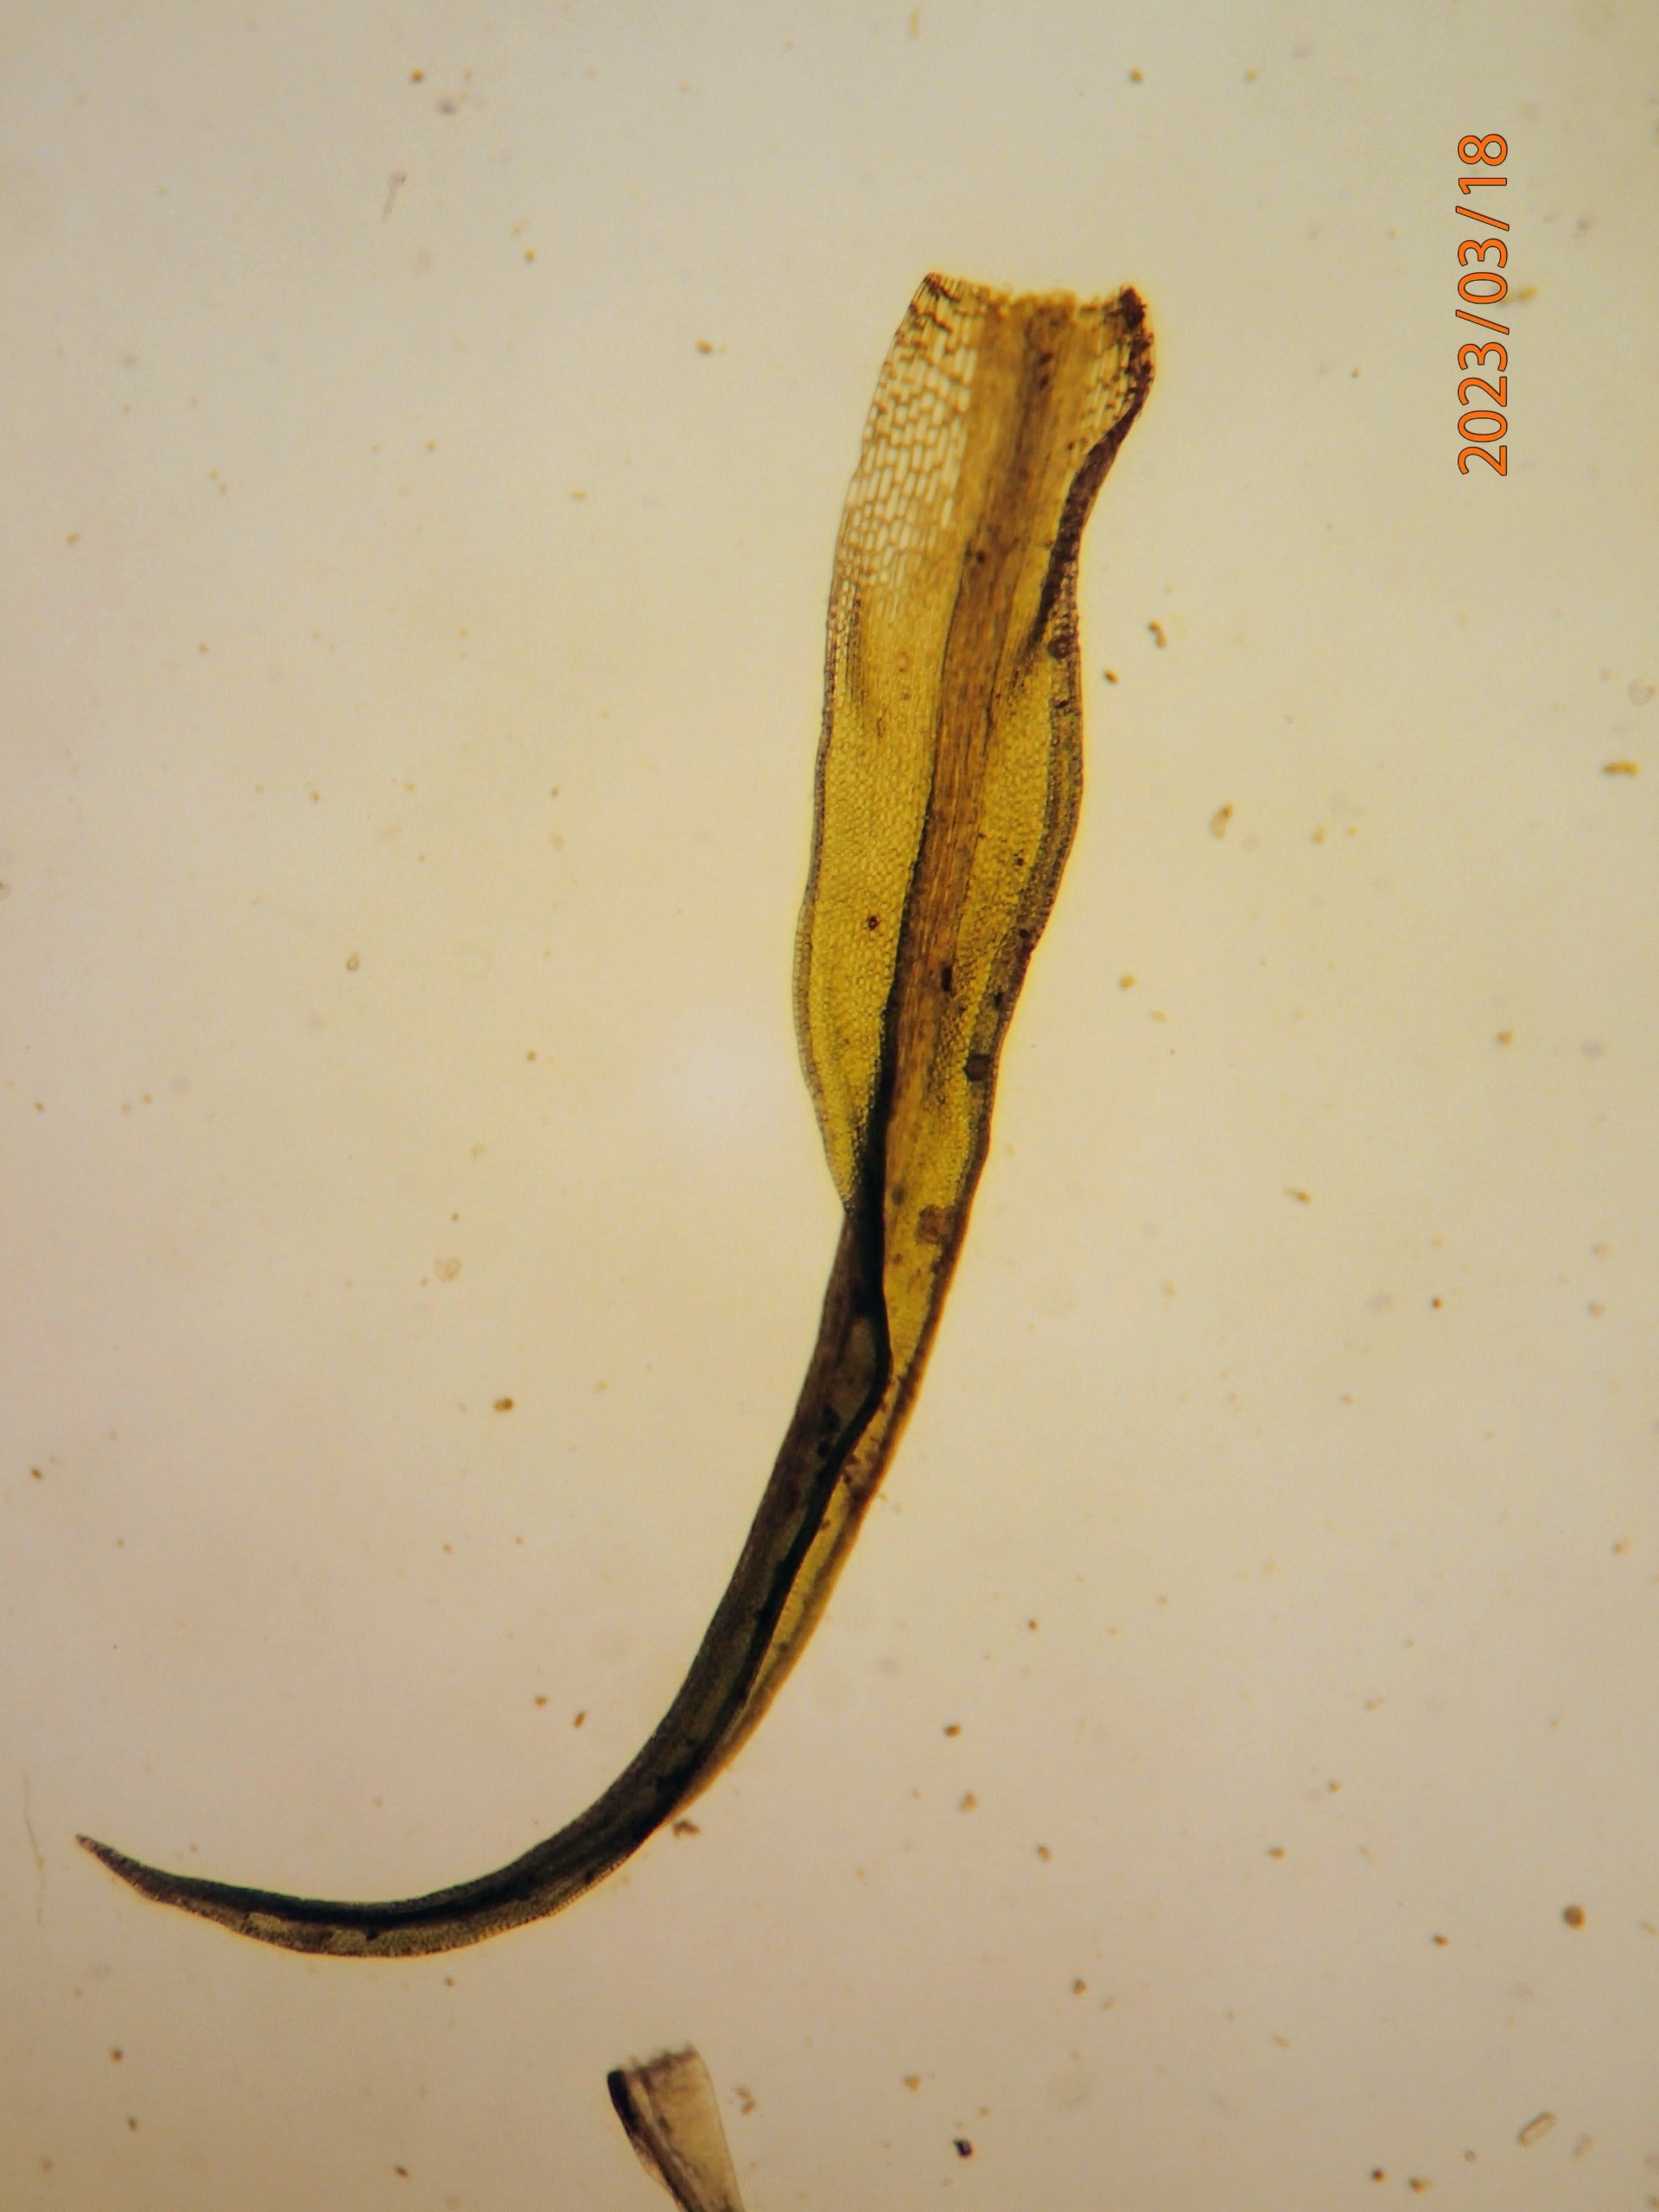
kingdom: Plantae
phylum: Bryophyta
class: Bryopsida
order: Dicranales
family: Rhabdoweisiaceae
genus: Dicranoweisia
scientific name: Dicranoweisia cirrata
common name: Almindelig krøltuemos
